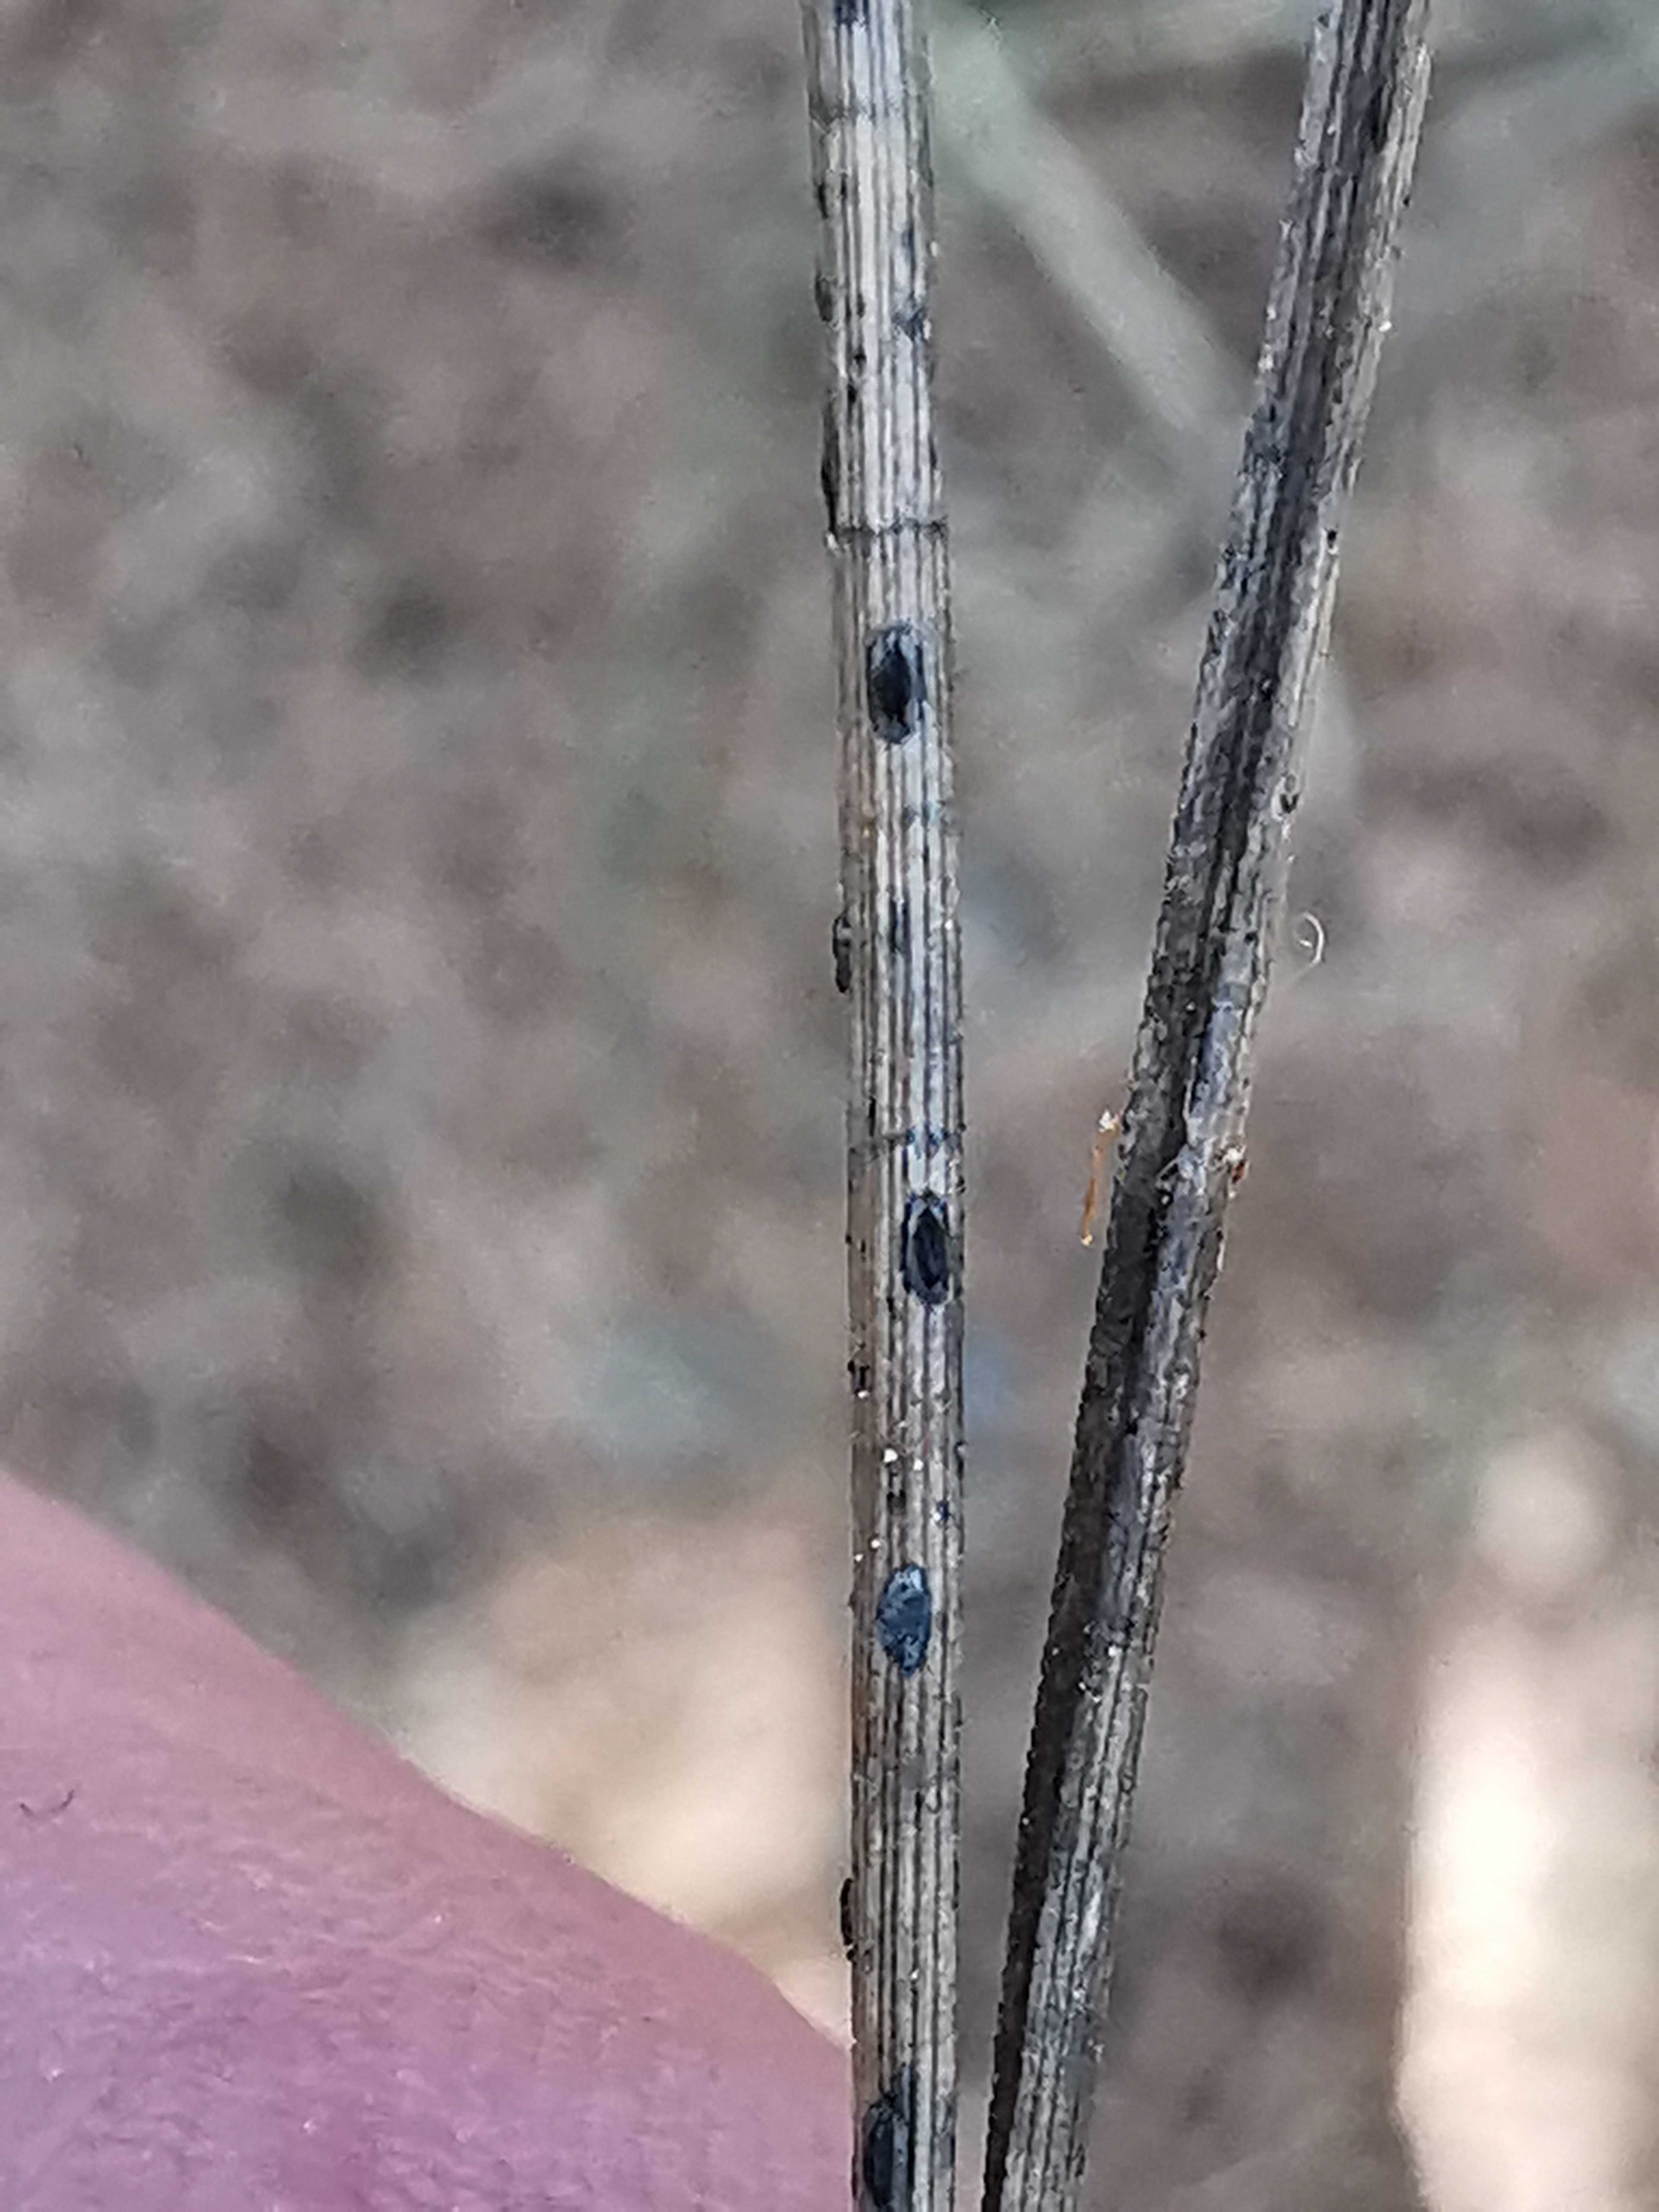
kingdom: Fungi
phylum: Ascomycota
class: Leotiomycetes
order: Rhytismatales
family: Rhytismataceae
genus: Lophodermium
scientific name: Lophodermium pinastri
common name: fyrre-fureplet
